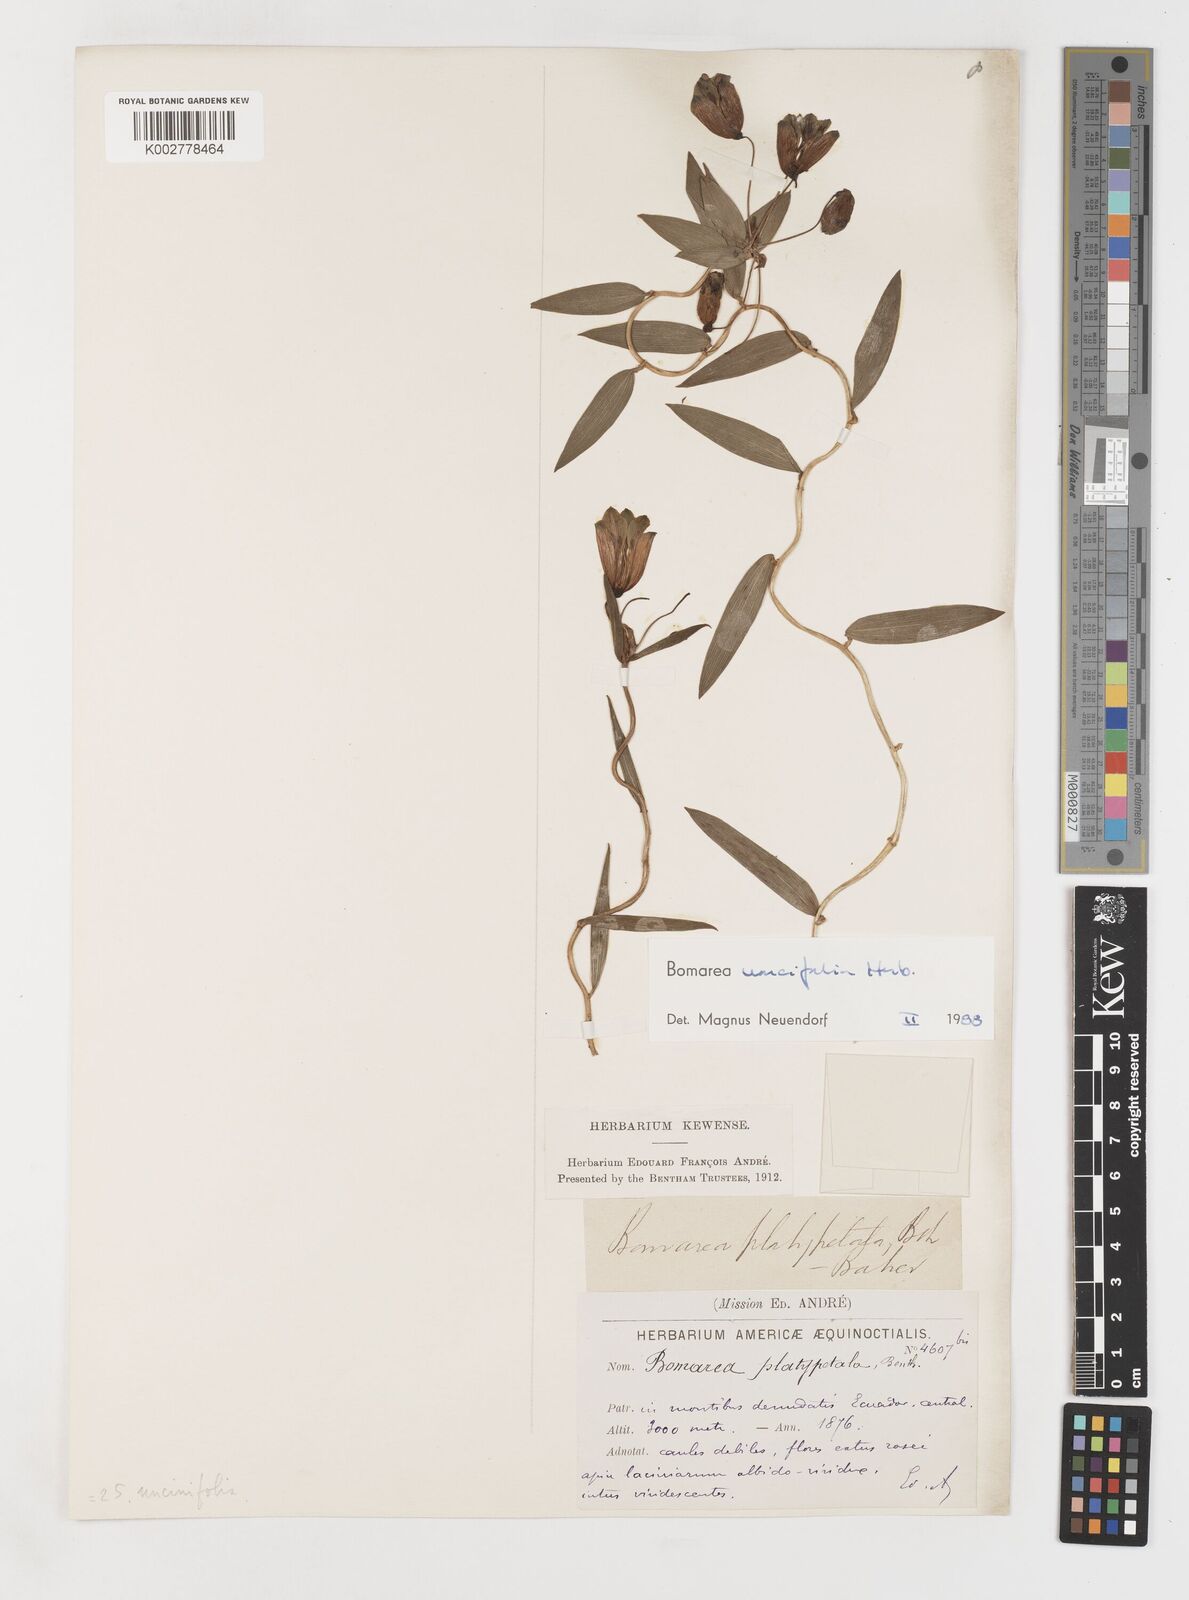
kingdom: Plantae
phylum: Tracheophyta
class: Liliopsida
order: Liliales
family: Alstroemeriaceae
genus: Bomarea
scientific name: Bomarea uncifolia
